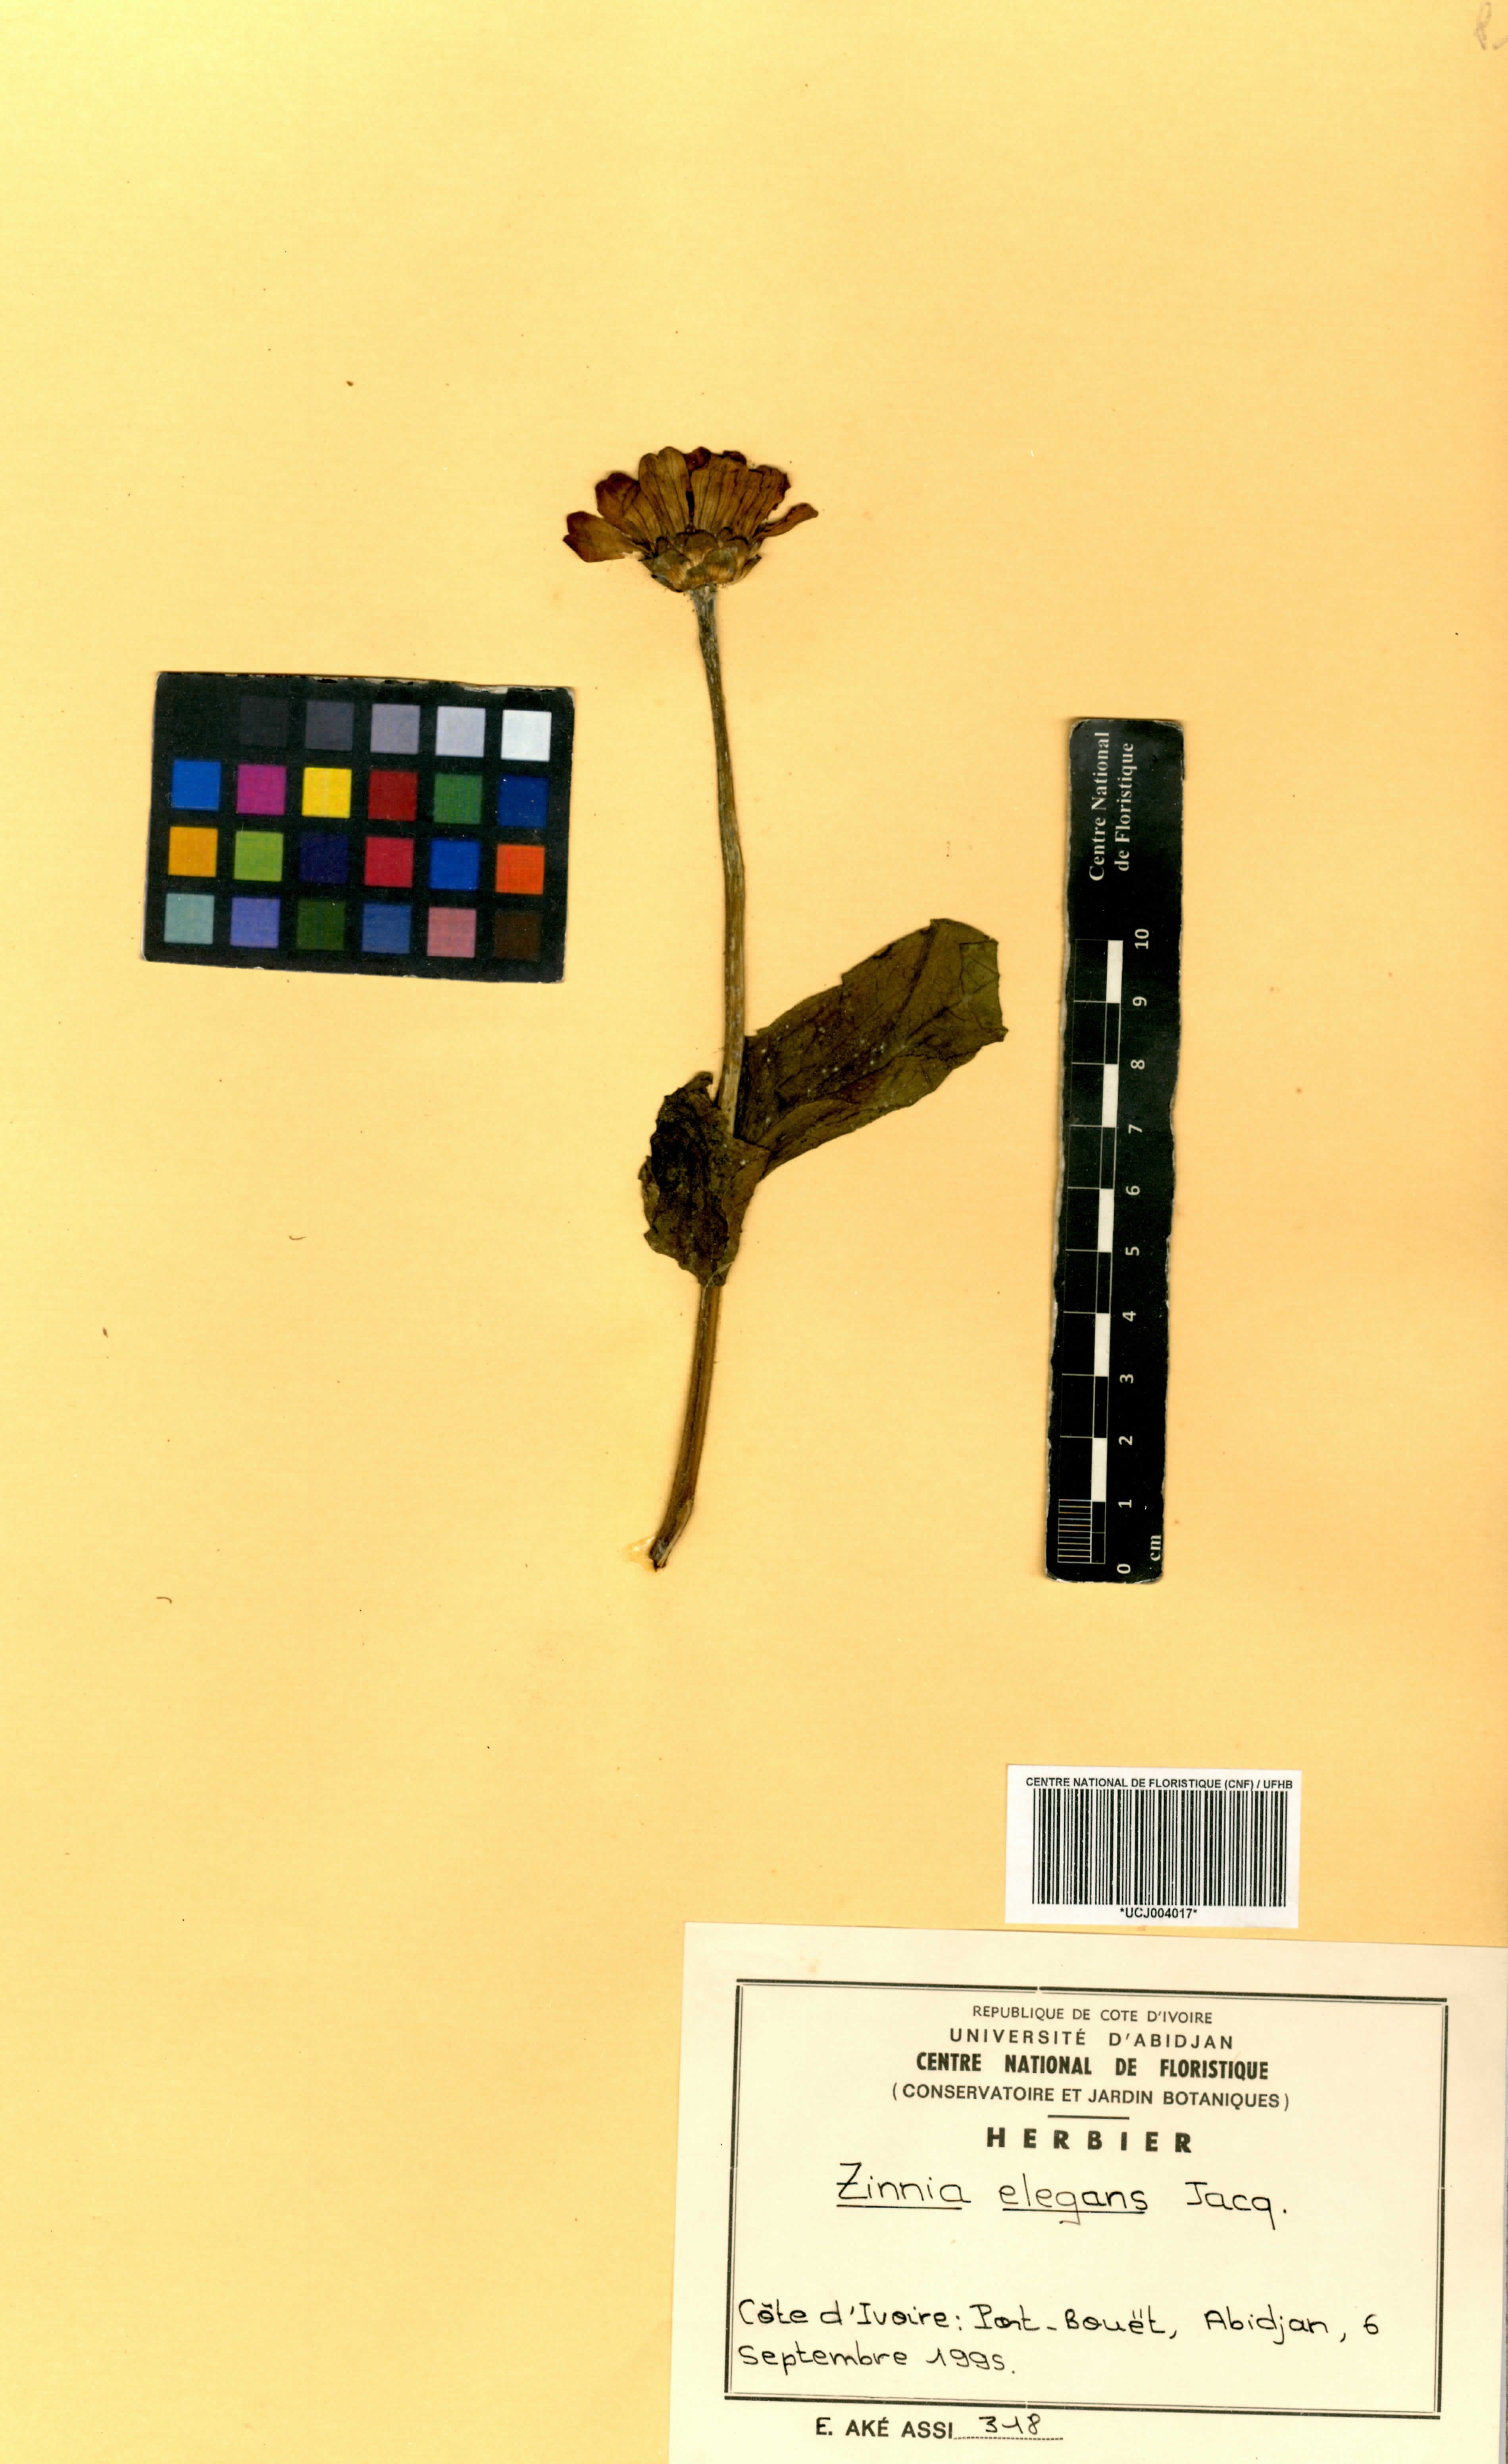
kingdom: Plantae
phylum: Tracheophyta
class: Magnoliopsida
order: Asterales
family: Asteraceae
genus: Zinnia
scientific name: Zinnia elegans
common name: Youth-and-age
